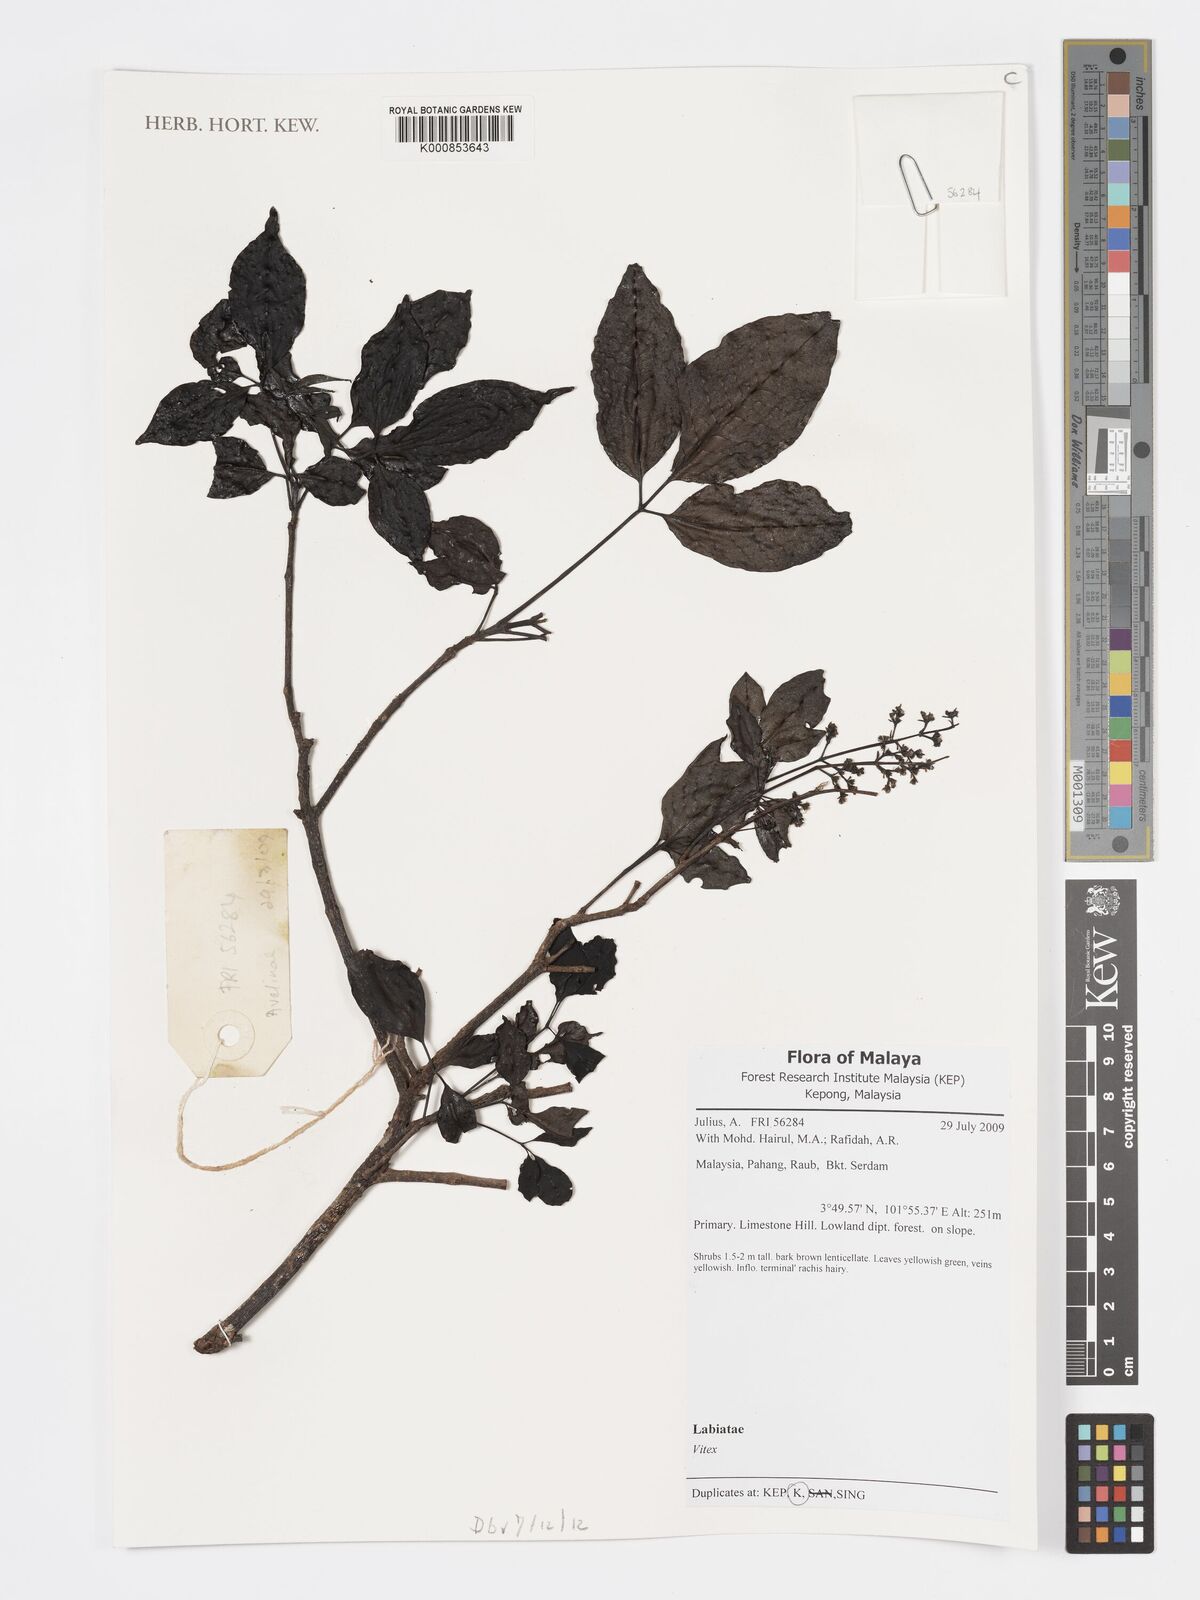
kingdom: Plantae
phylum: Tracheophyta
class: Magnoliopsida
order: Lamiales
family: Lamiaceae
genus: Vitex
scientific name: Vitex
